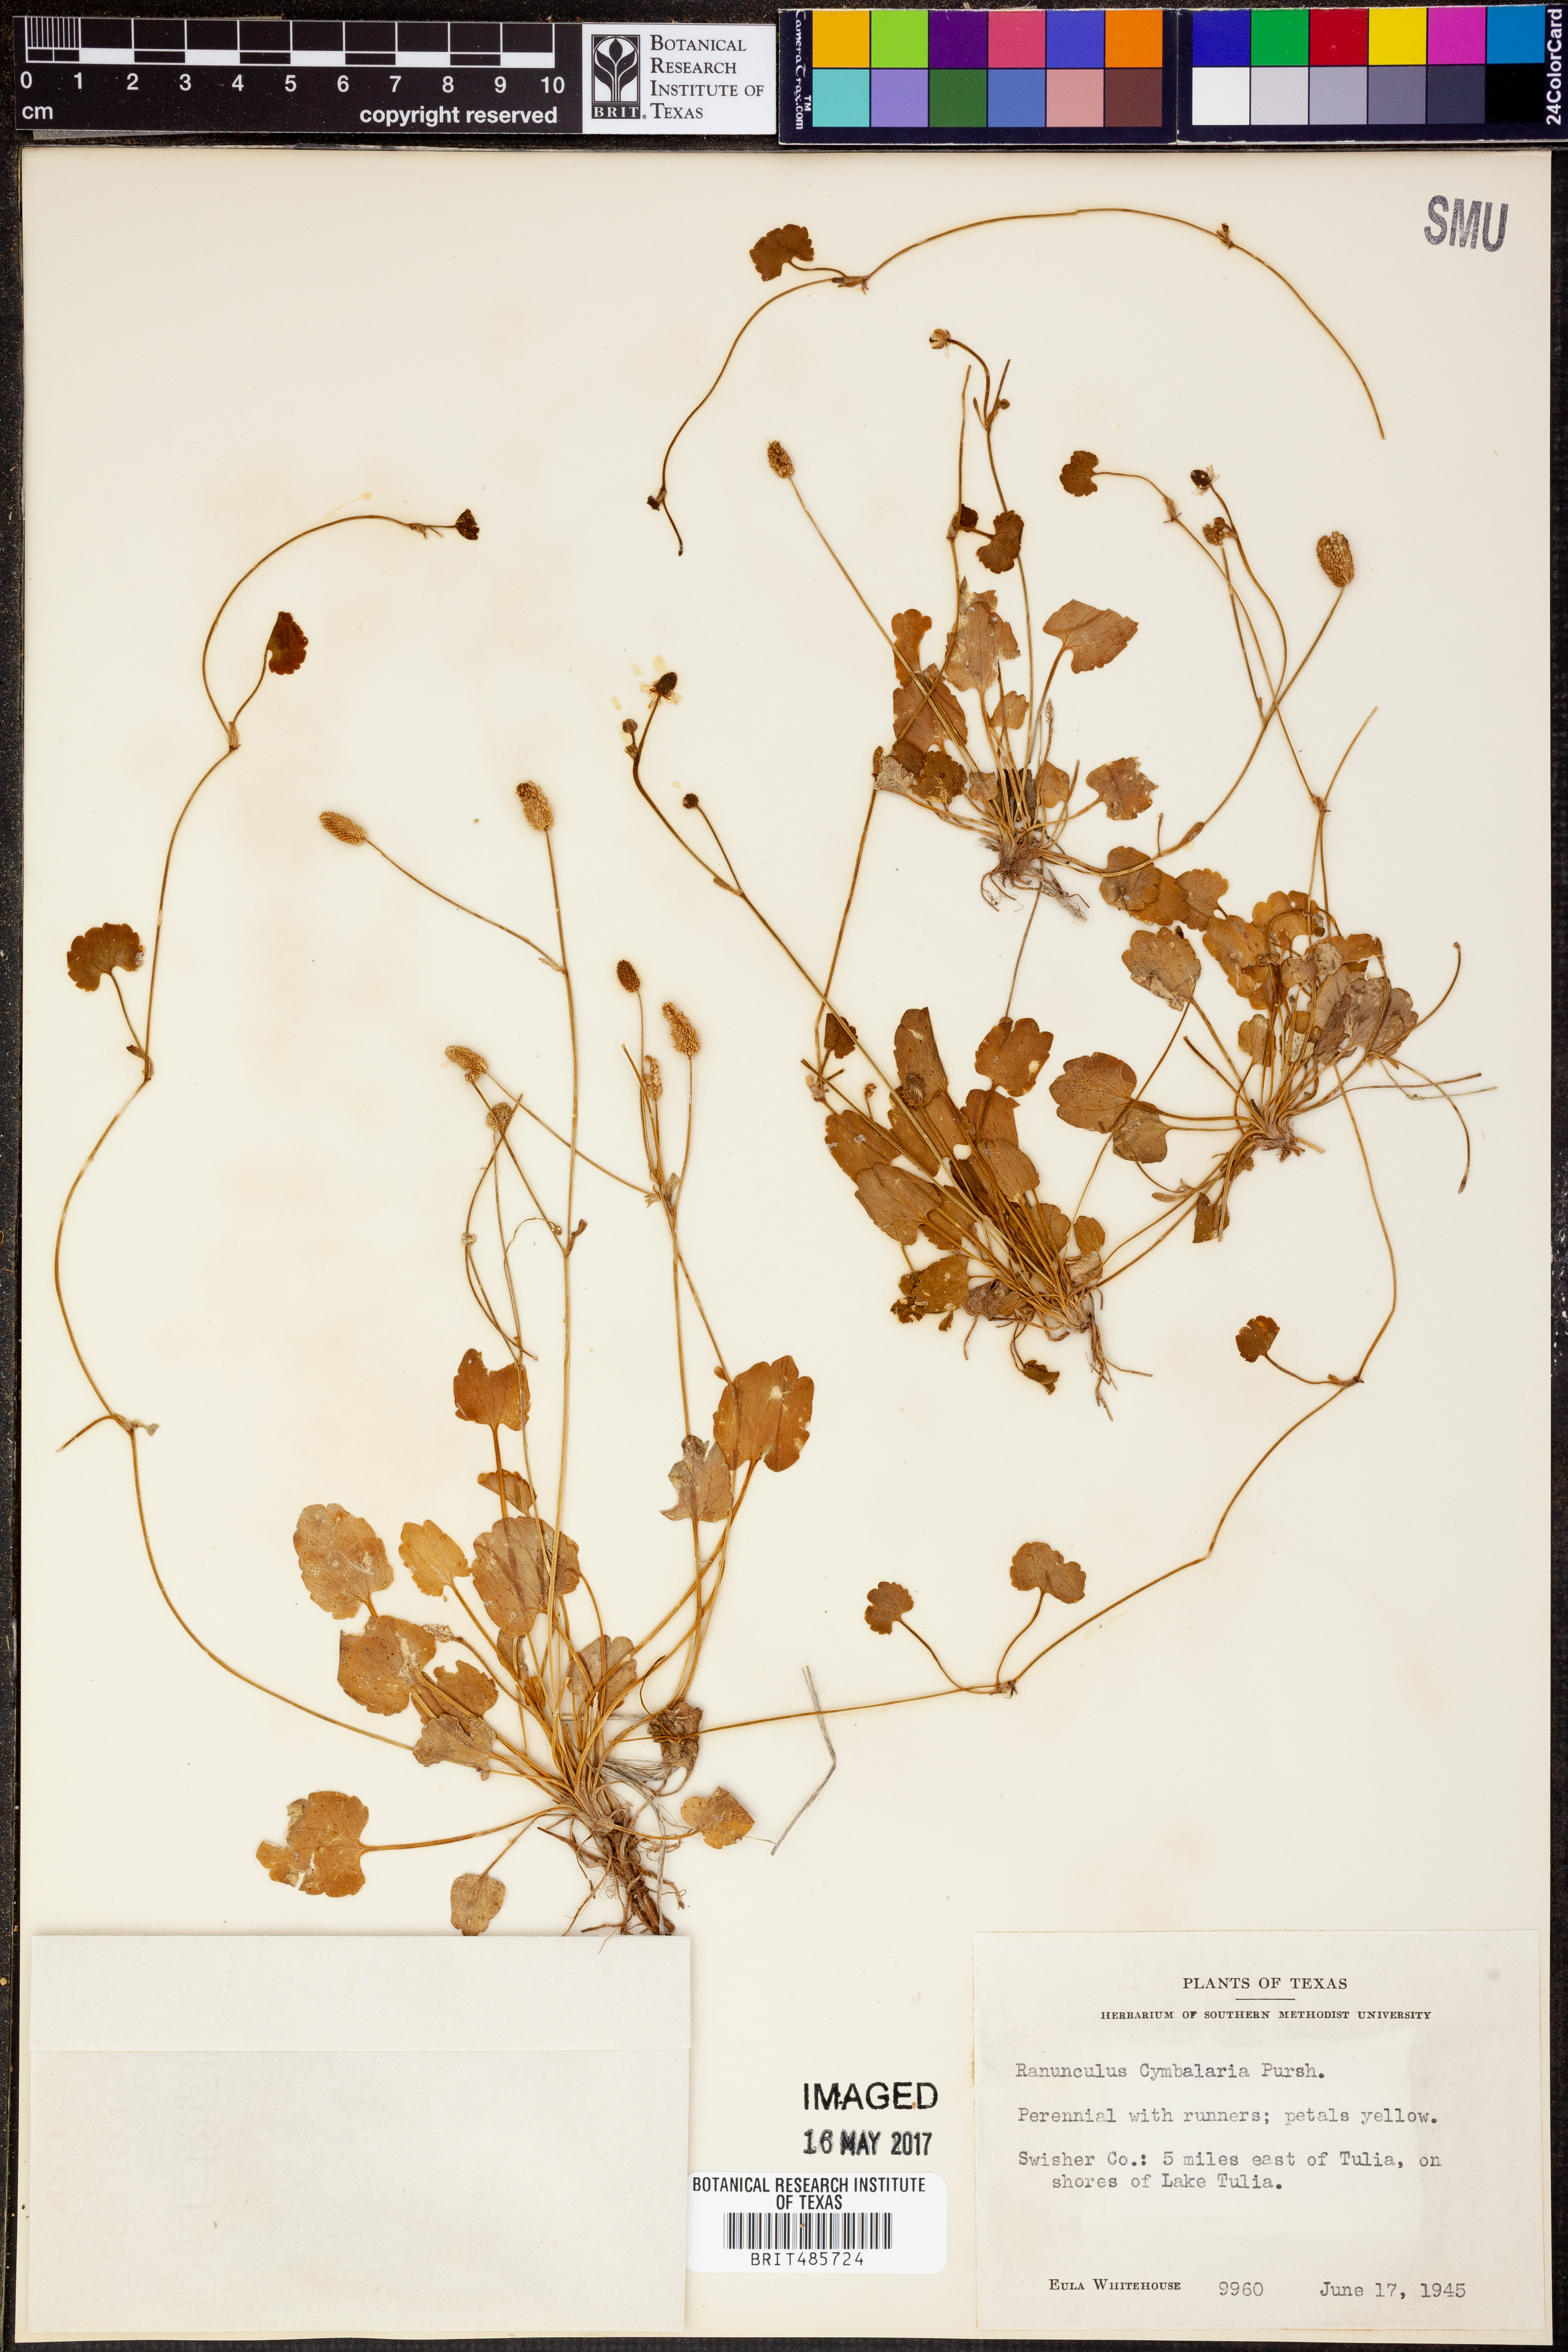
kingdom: Plantae
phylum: Tracheophyta
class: Magnoliopsida
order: Ranunculales
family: Ranunculaceae
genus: Halerpestes
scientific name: Halerpestes cymbalaria
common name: Seaside crowfoot
